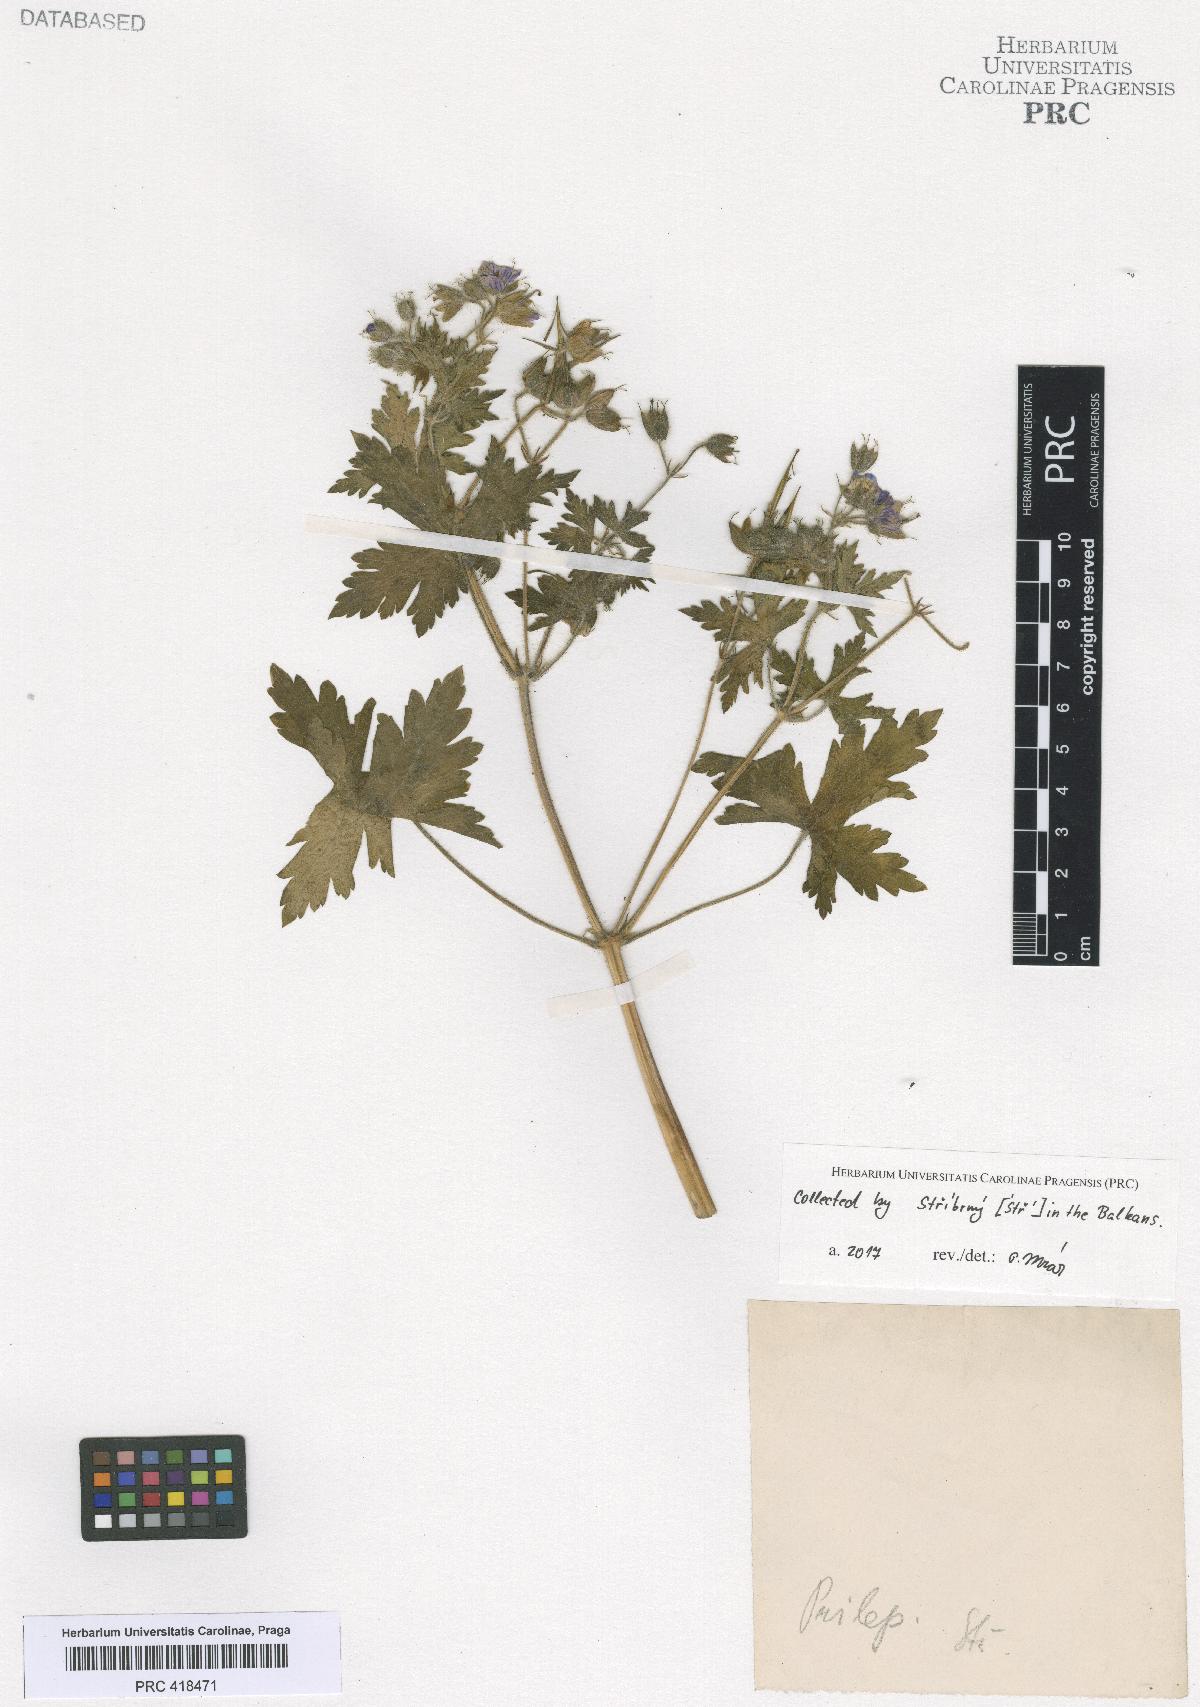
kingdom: Plantae
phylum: Tracheophyta
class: Magnoliopsida
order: Geraniales
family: Geraniaceae
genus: Geranium
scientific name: Geranium bohemicum
